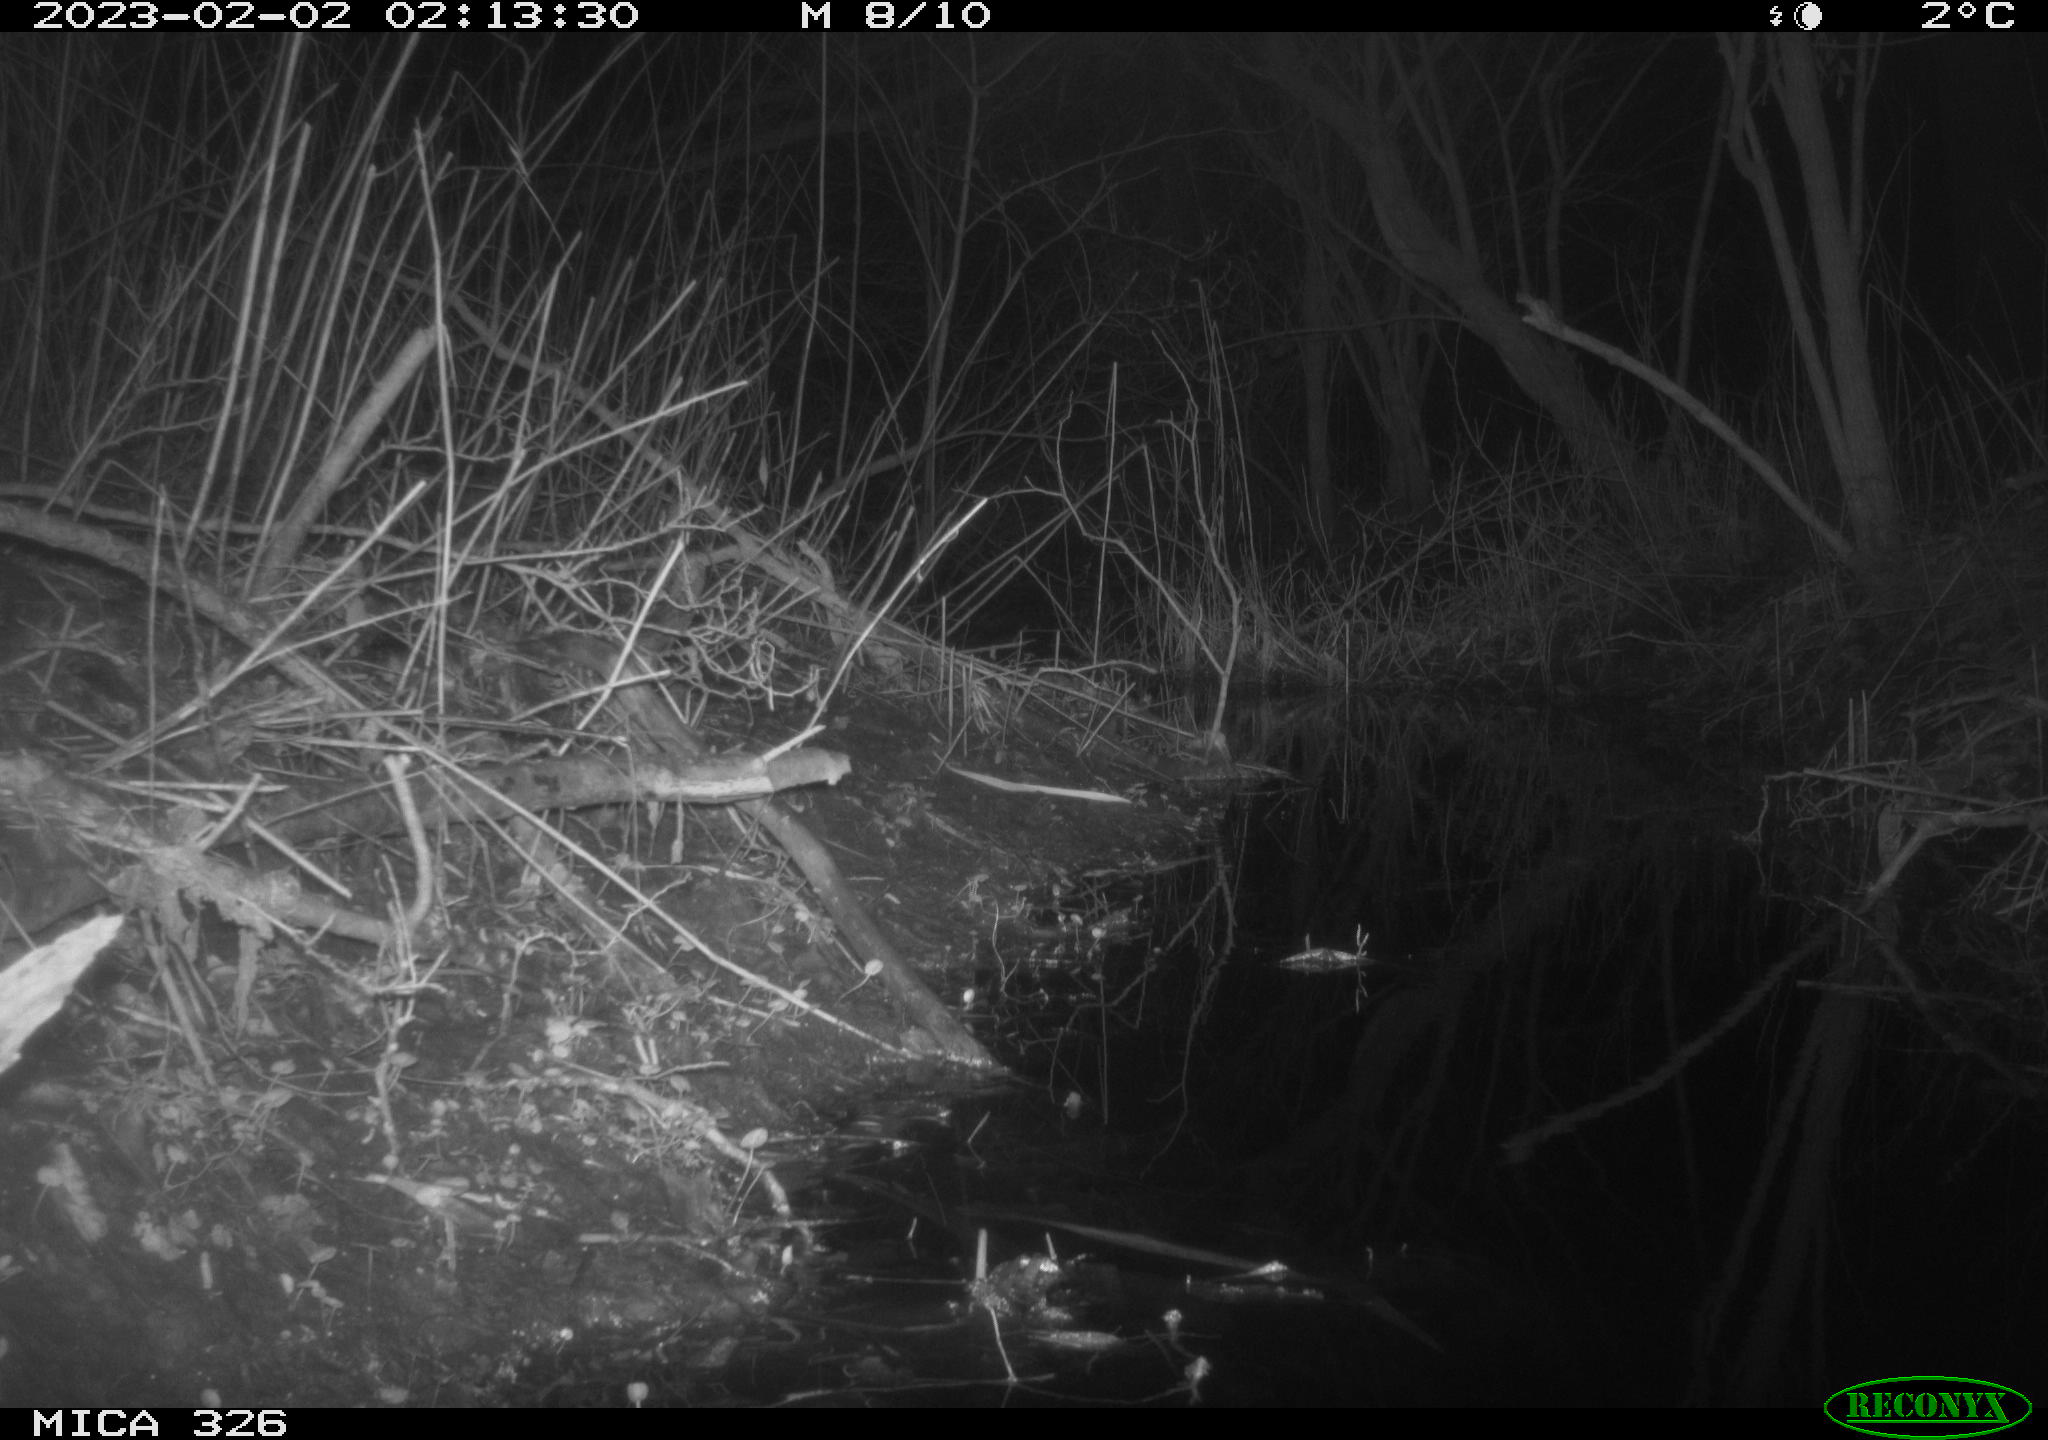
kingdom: Animalia
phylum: Chordata
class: Mammalia
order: Rodentia
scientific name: Rodentia
